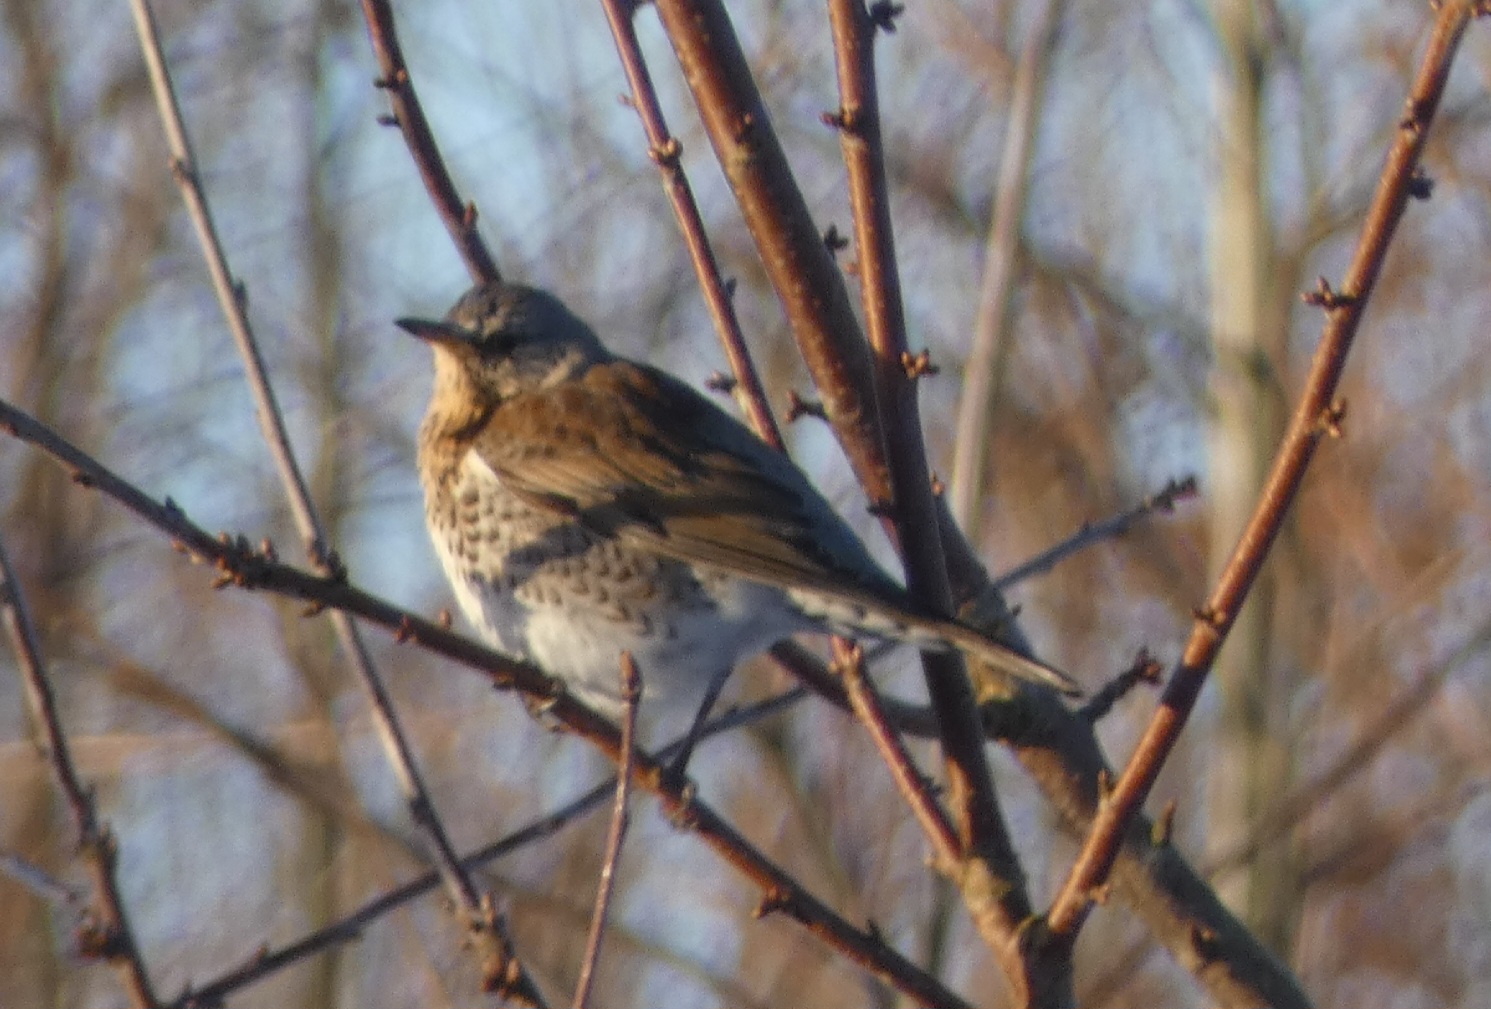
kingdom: Animalia
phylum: Chordata
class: Aves
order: Passeriformes
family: Turdidae
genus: Turdus
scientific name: Turdus pilaris
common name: Sjagger
